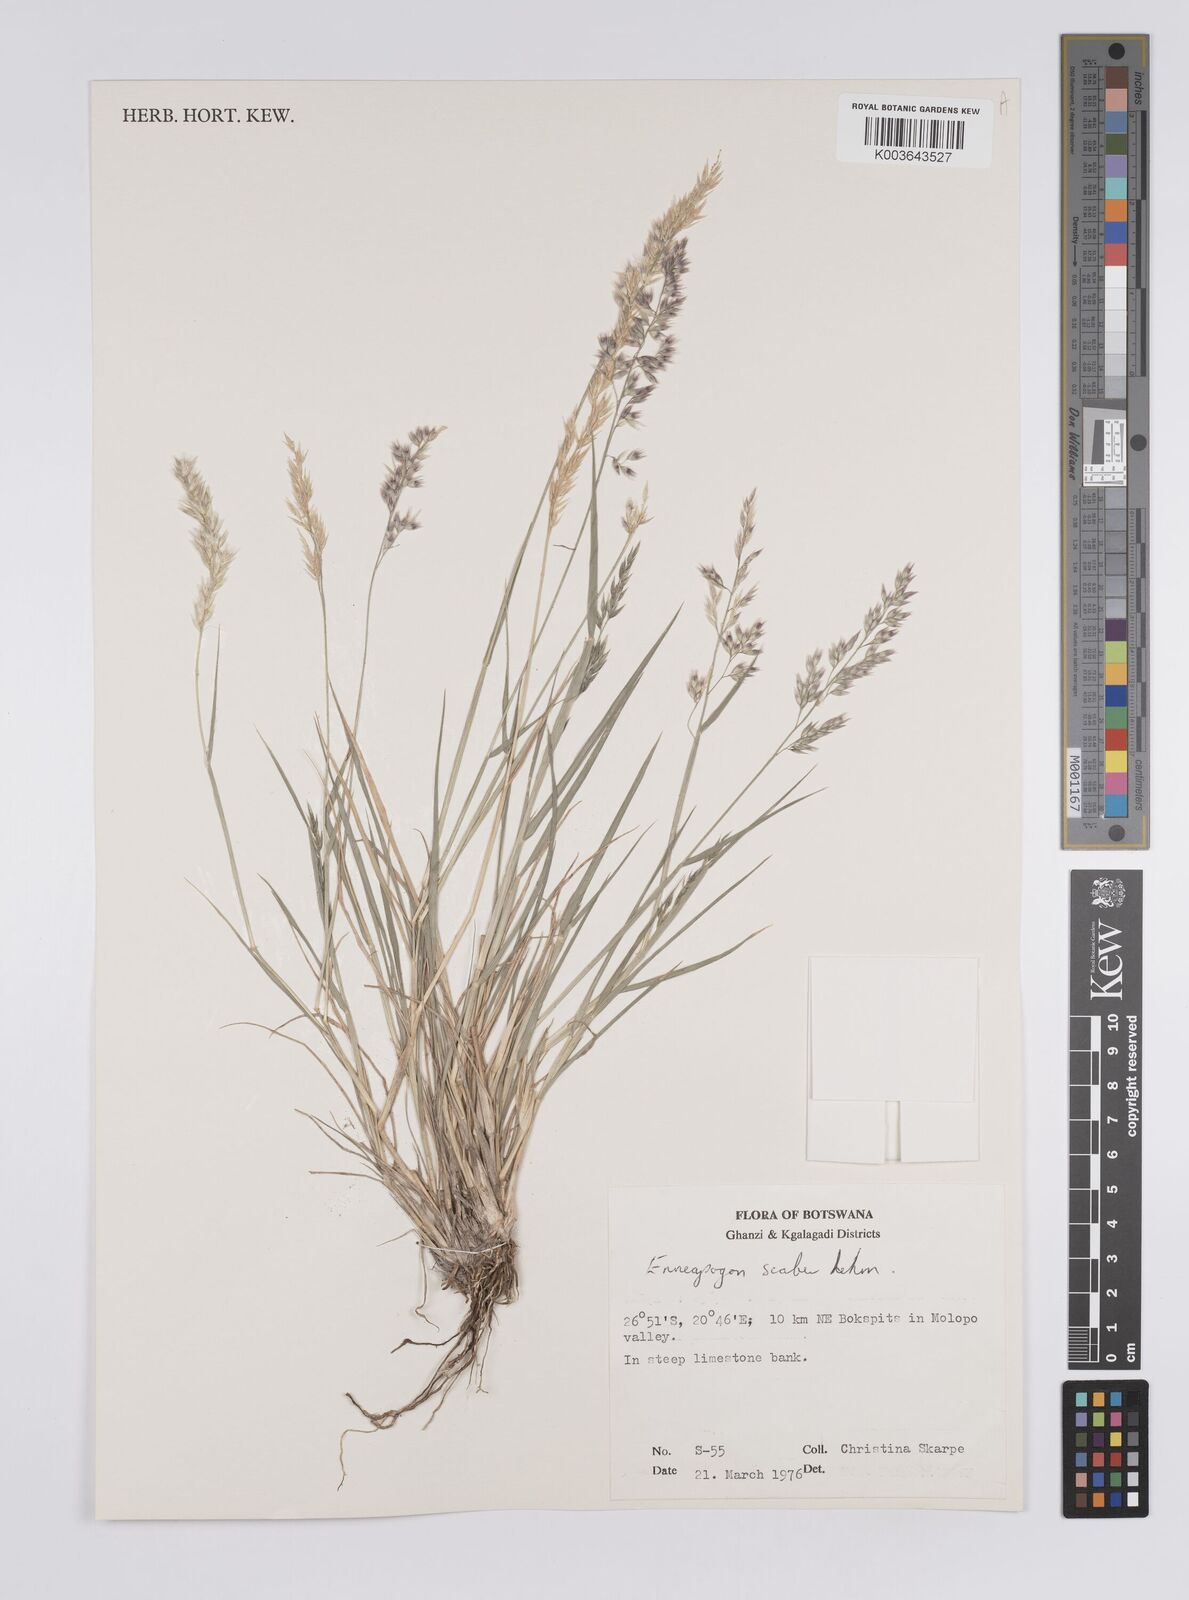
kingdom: Plantae
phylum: Tracheophyta
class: Liliopsida
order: Poales
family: Poaceae
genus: Enneapogon
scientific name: Enneapogon scaber
